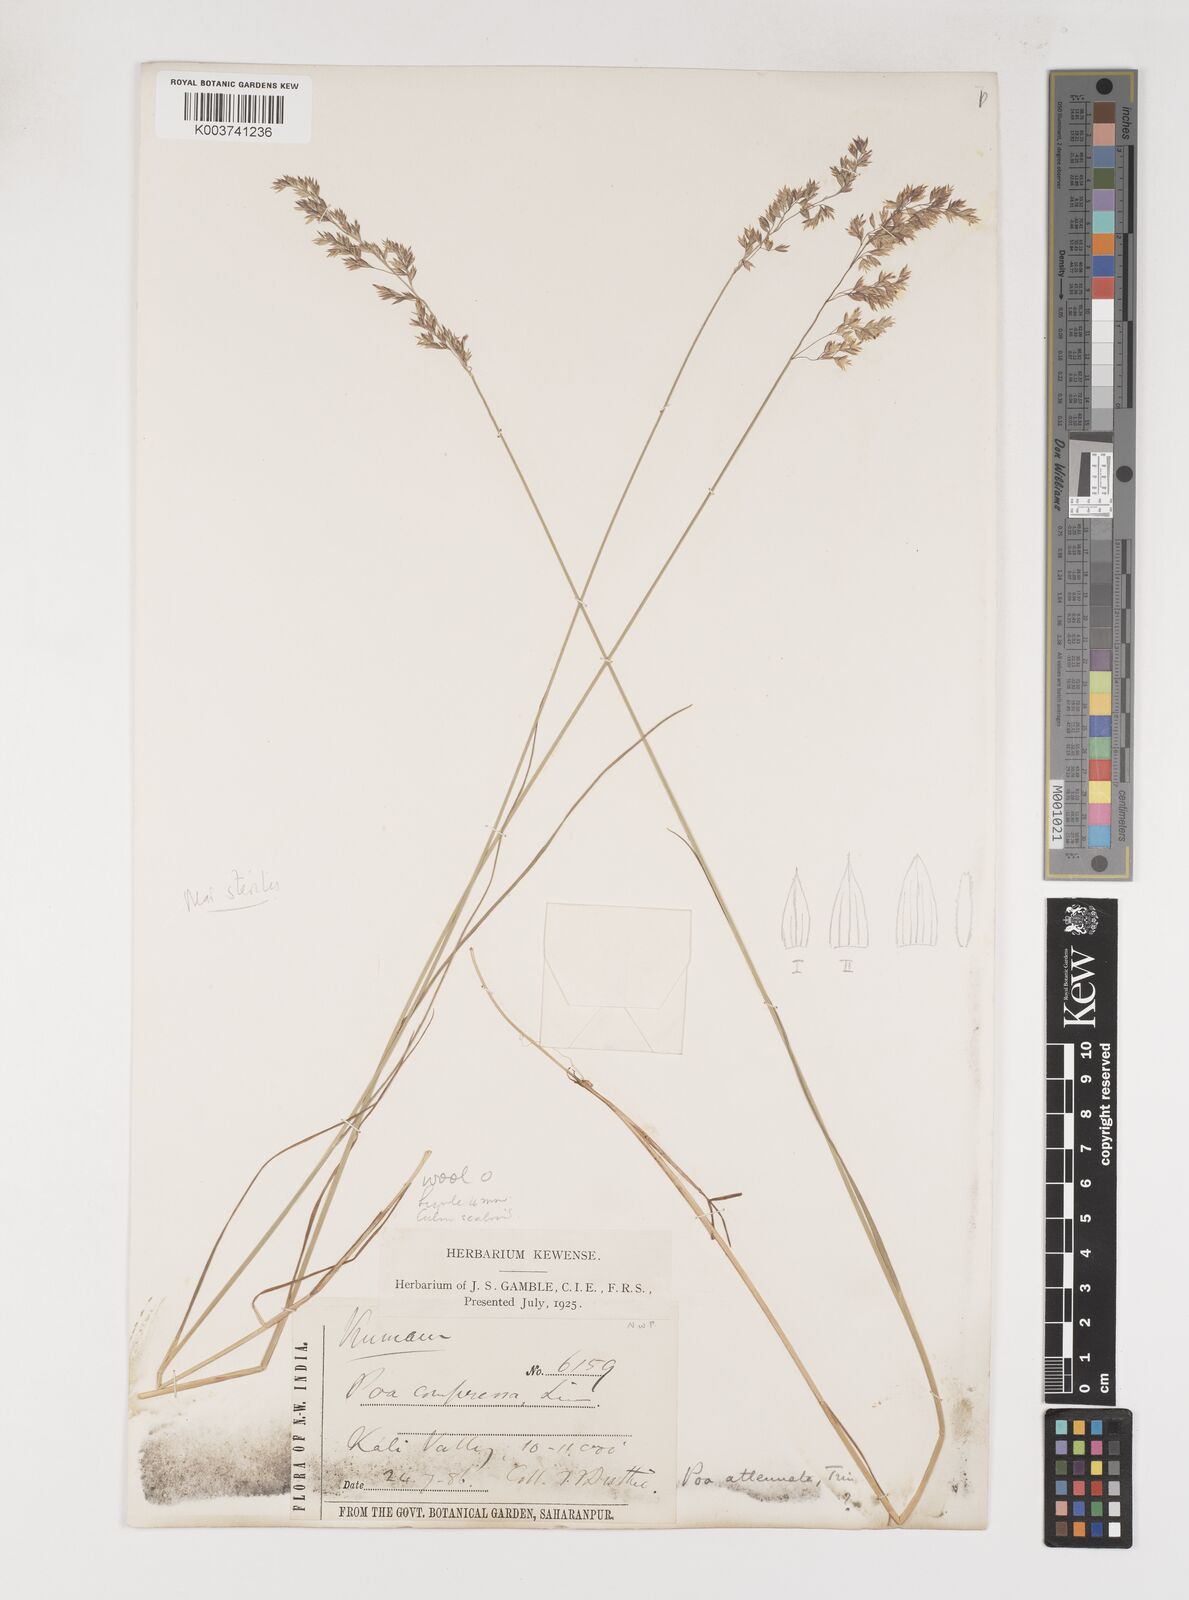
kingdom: Plantae
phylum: Tracheophyta
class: Liliopsida
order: Poales
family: Poaceae
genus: Poa
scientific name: Poa araratica
